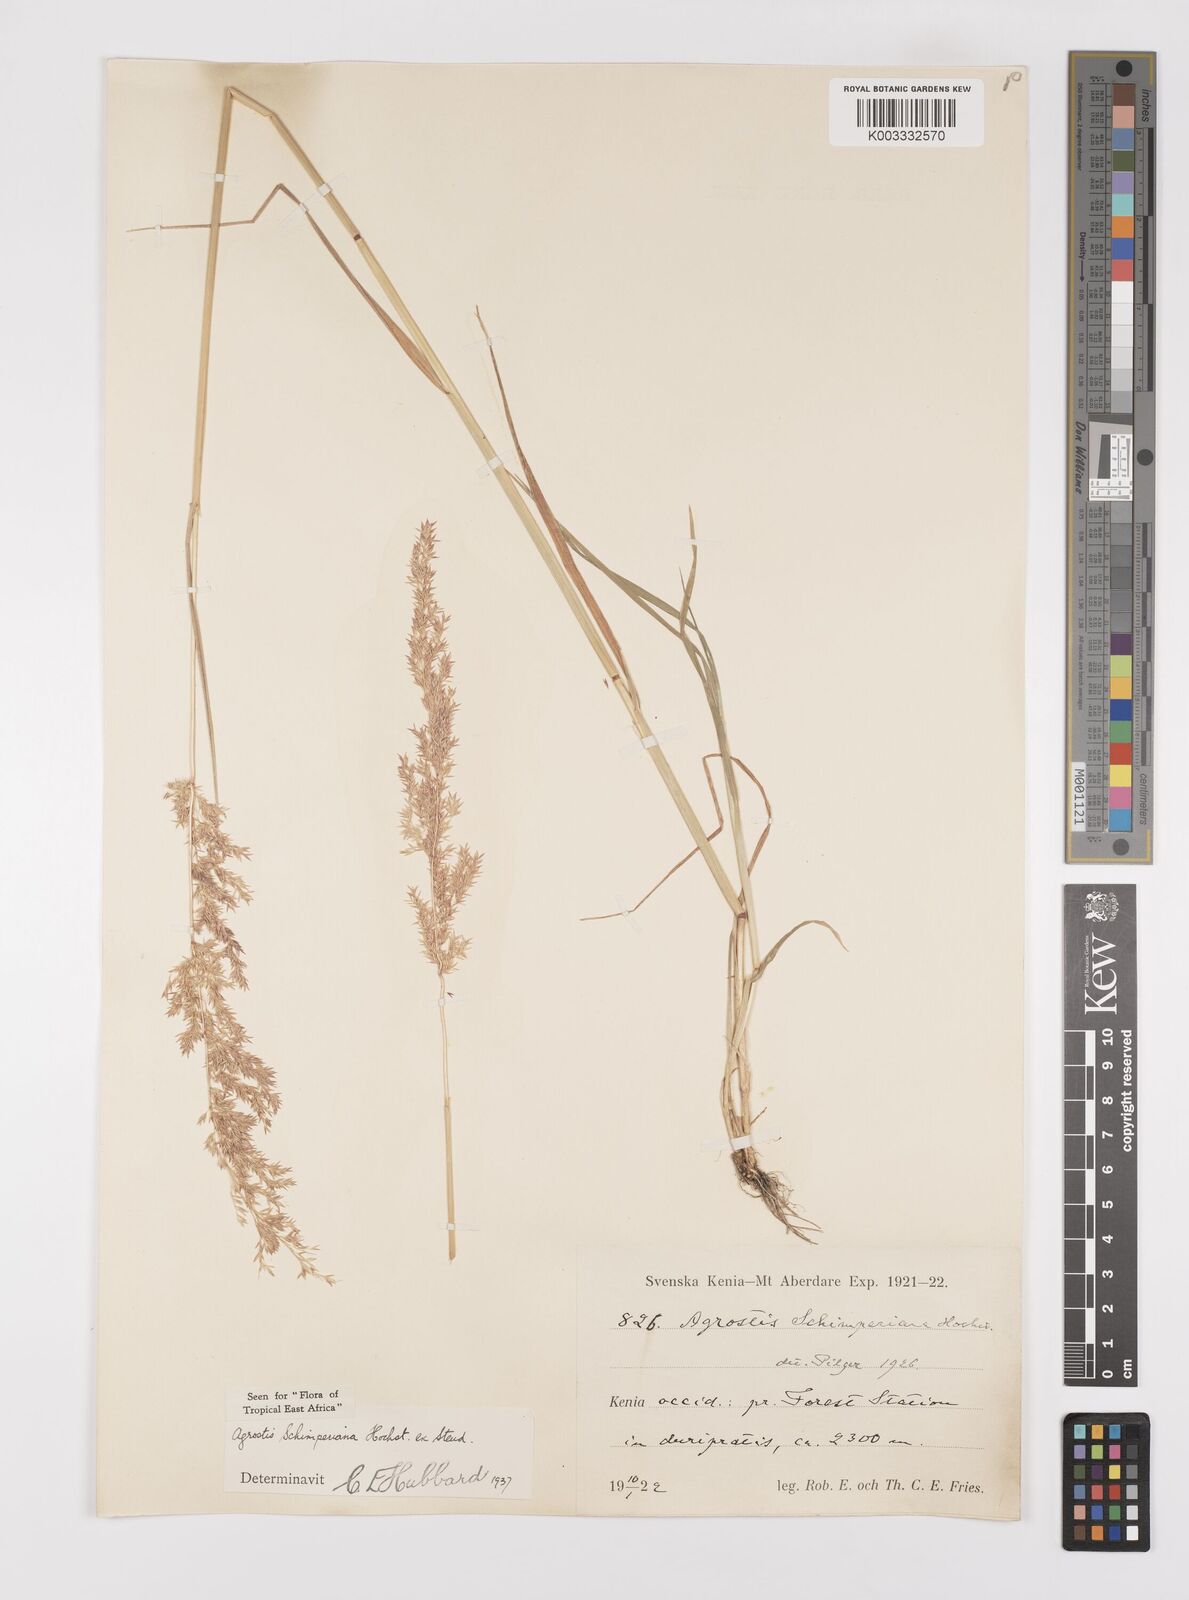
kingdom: Plantae
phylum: Tracheophyta
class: Liliopsida
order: Poales
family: Poaceae
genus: Polypogon
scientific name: Polypogon schimperianus
